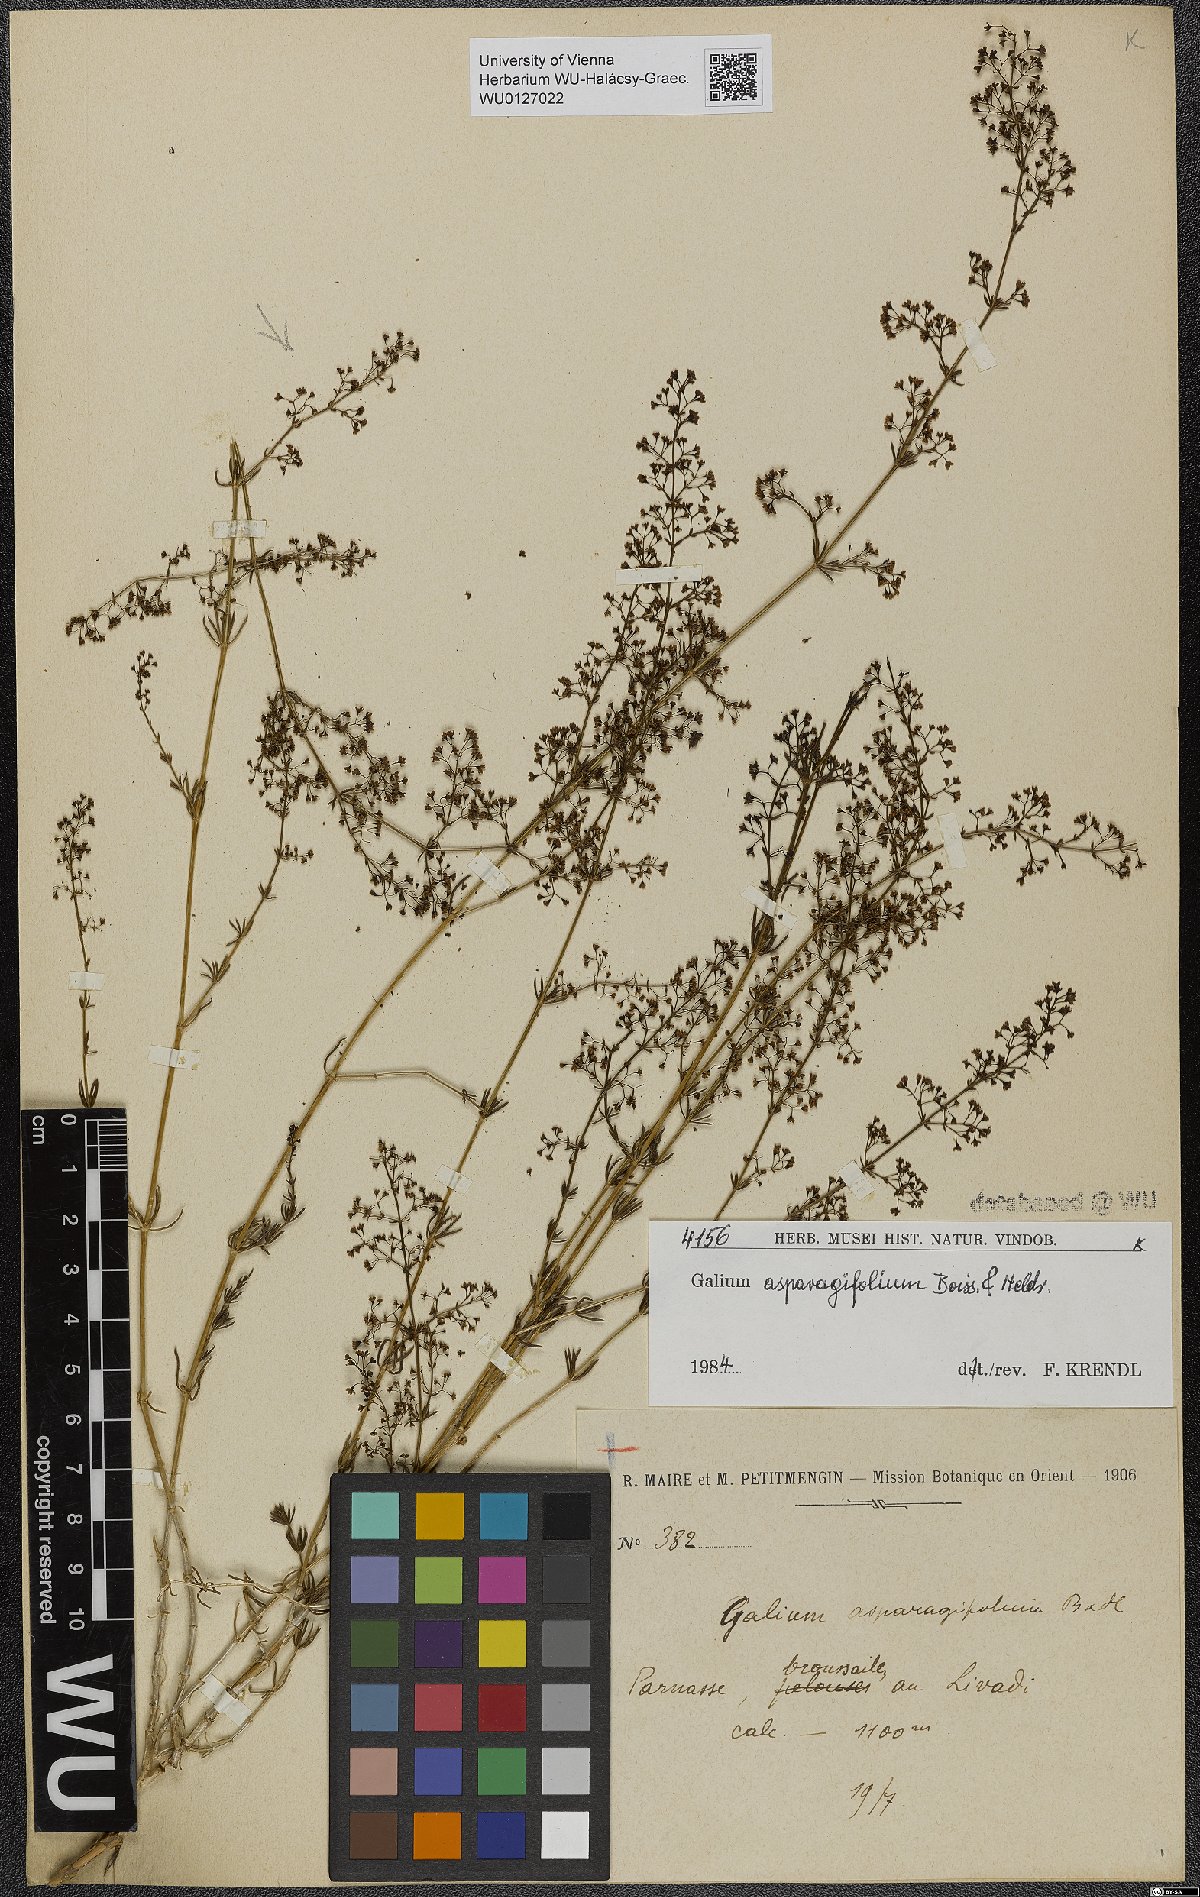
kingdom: Plantae
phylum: Tracheophyta
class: Magnoliopsida
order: Gentianales
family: Rubiaceae
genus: Galium
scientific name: Galium asparagifolium
